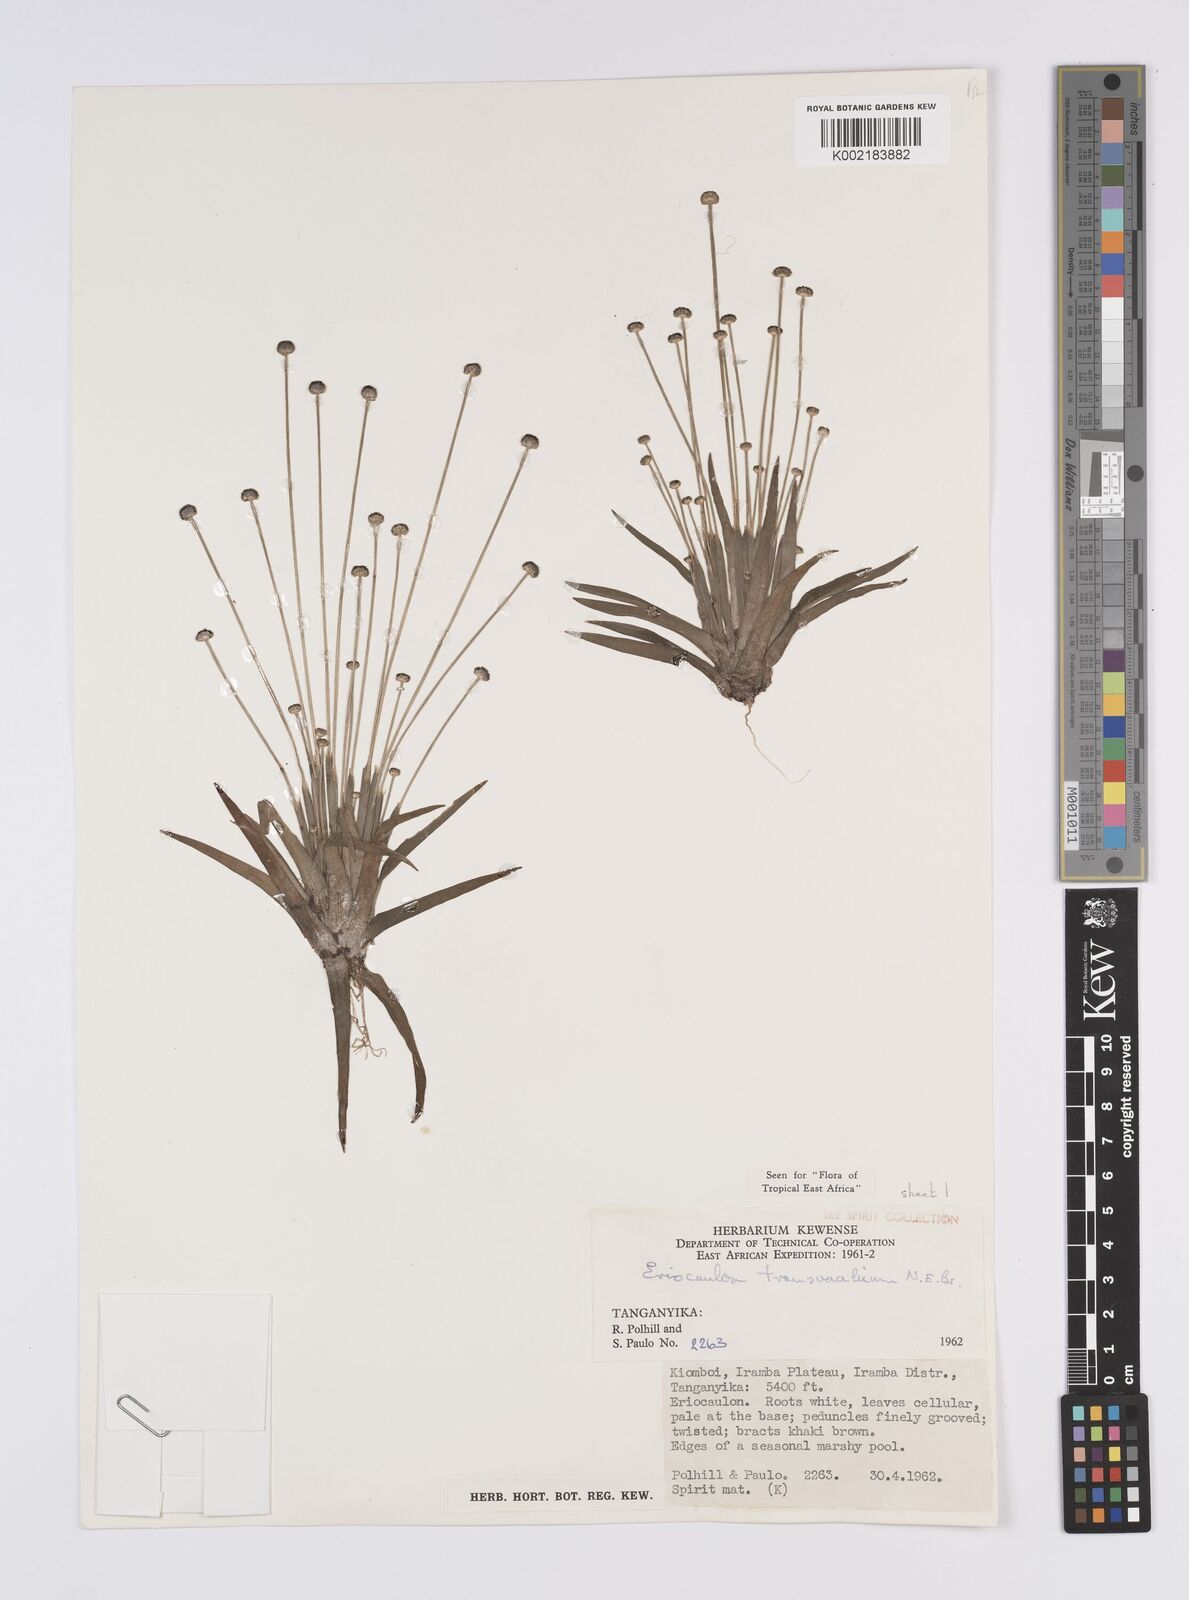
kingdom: Plantae
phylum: Tracheophyta
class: Liliopsida
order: Poales
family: Eriocaulaceae
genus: Eriocaulon
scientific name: Eriocaulon transvaalicum
